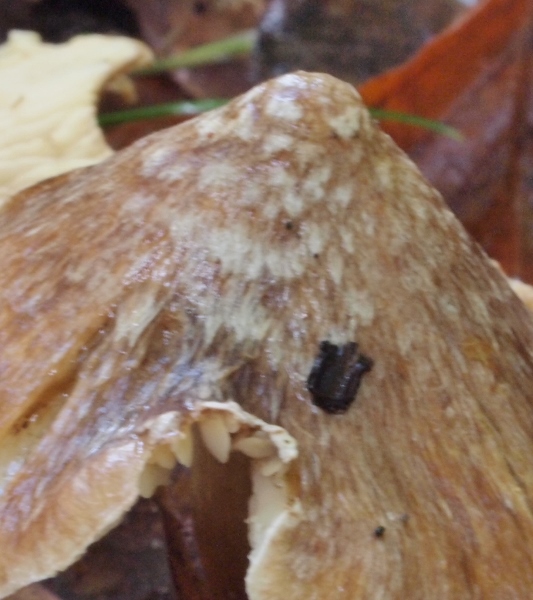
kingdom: Fungi
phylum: Basidiomycota
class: Agaricomycetes
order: Agaricales
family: Inocybaceae
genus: Inosperma
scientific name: Inosperma
